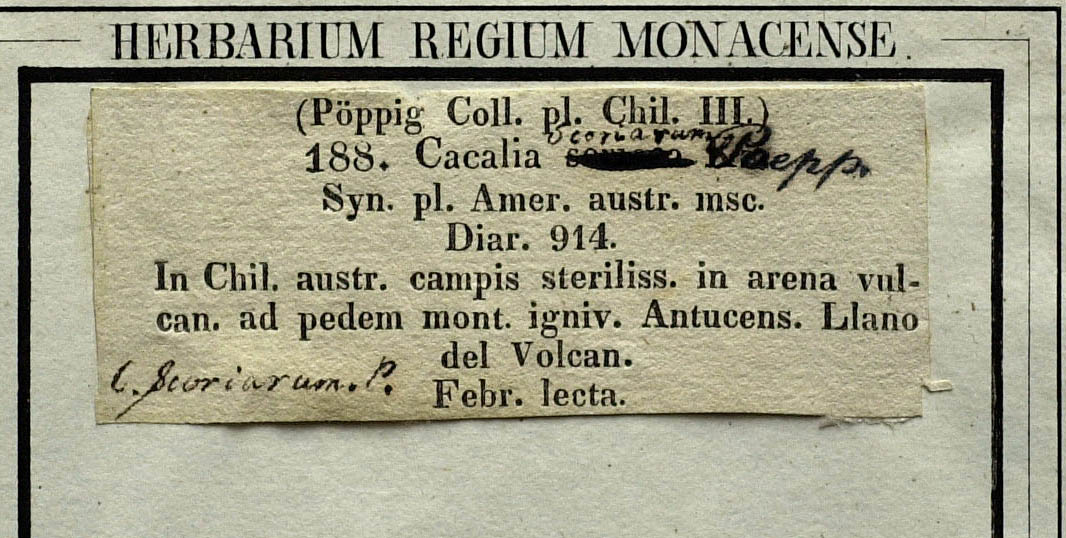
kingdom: Plantae
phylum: Tracheophyta
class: Magnoliopsida
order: Asterales
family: Asteraceae
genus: Senecio
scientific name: Senecio neaei
